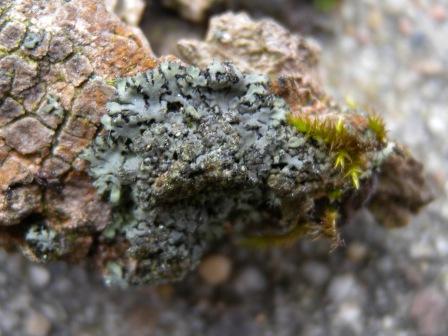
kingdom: Fungi
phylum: Ascomycota
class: Lecanoromycetes
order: Caliciales
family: Physciaceae
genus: Physciella
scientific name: Physciella nigricans
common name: sortagtig rosetlav
